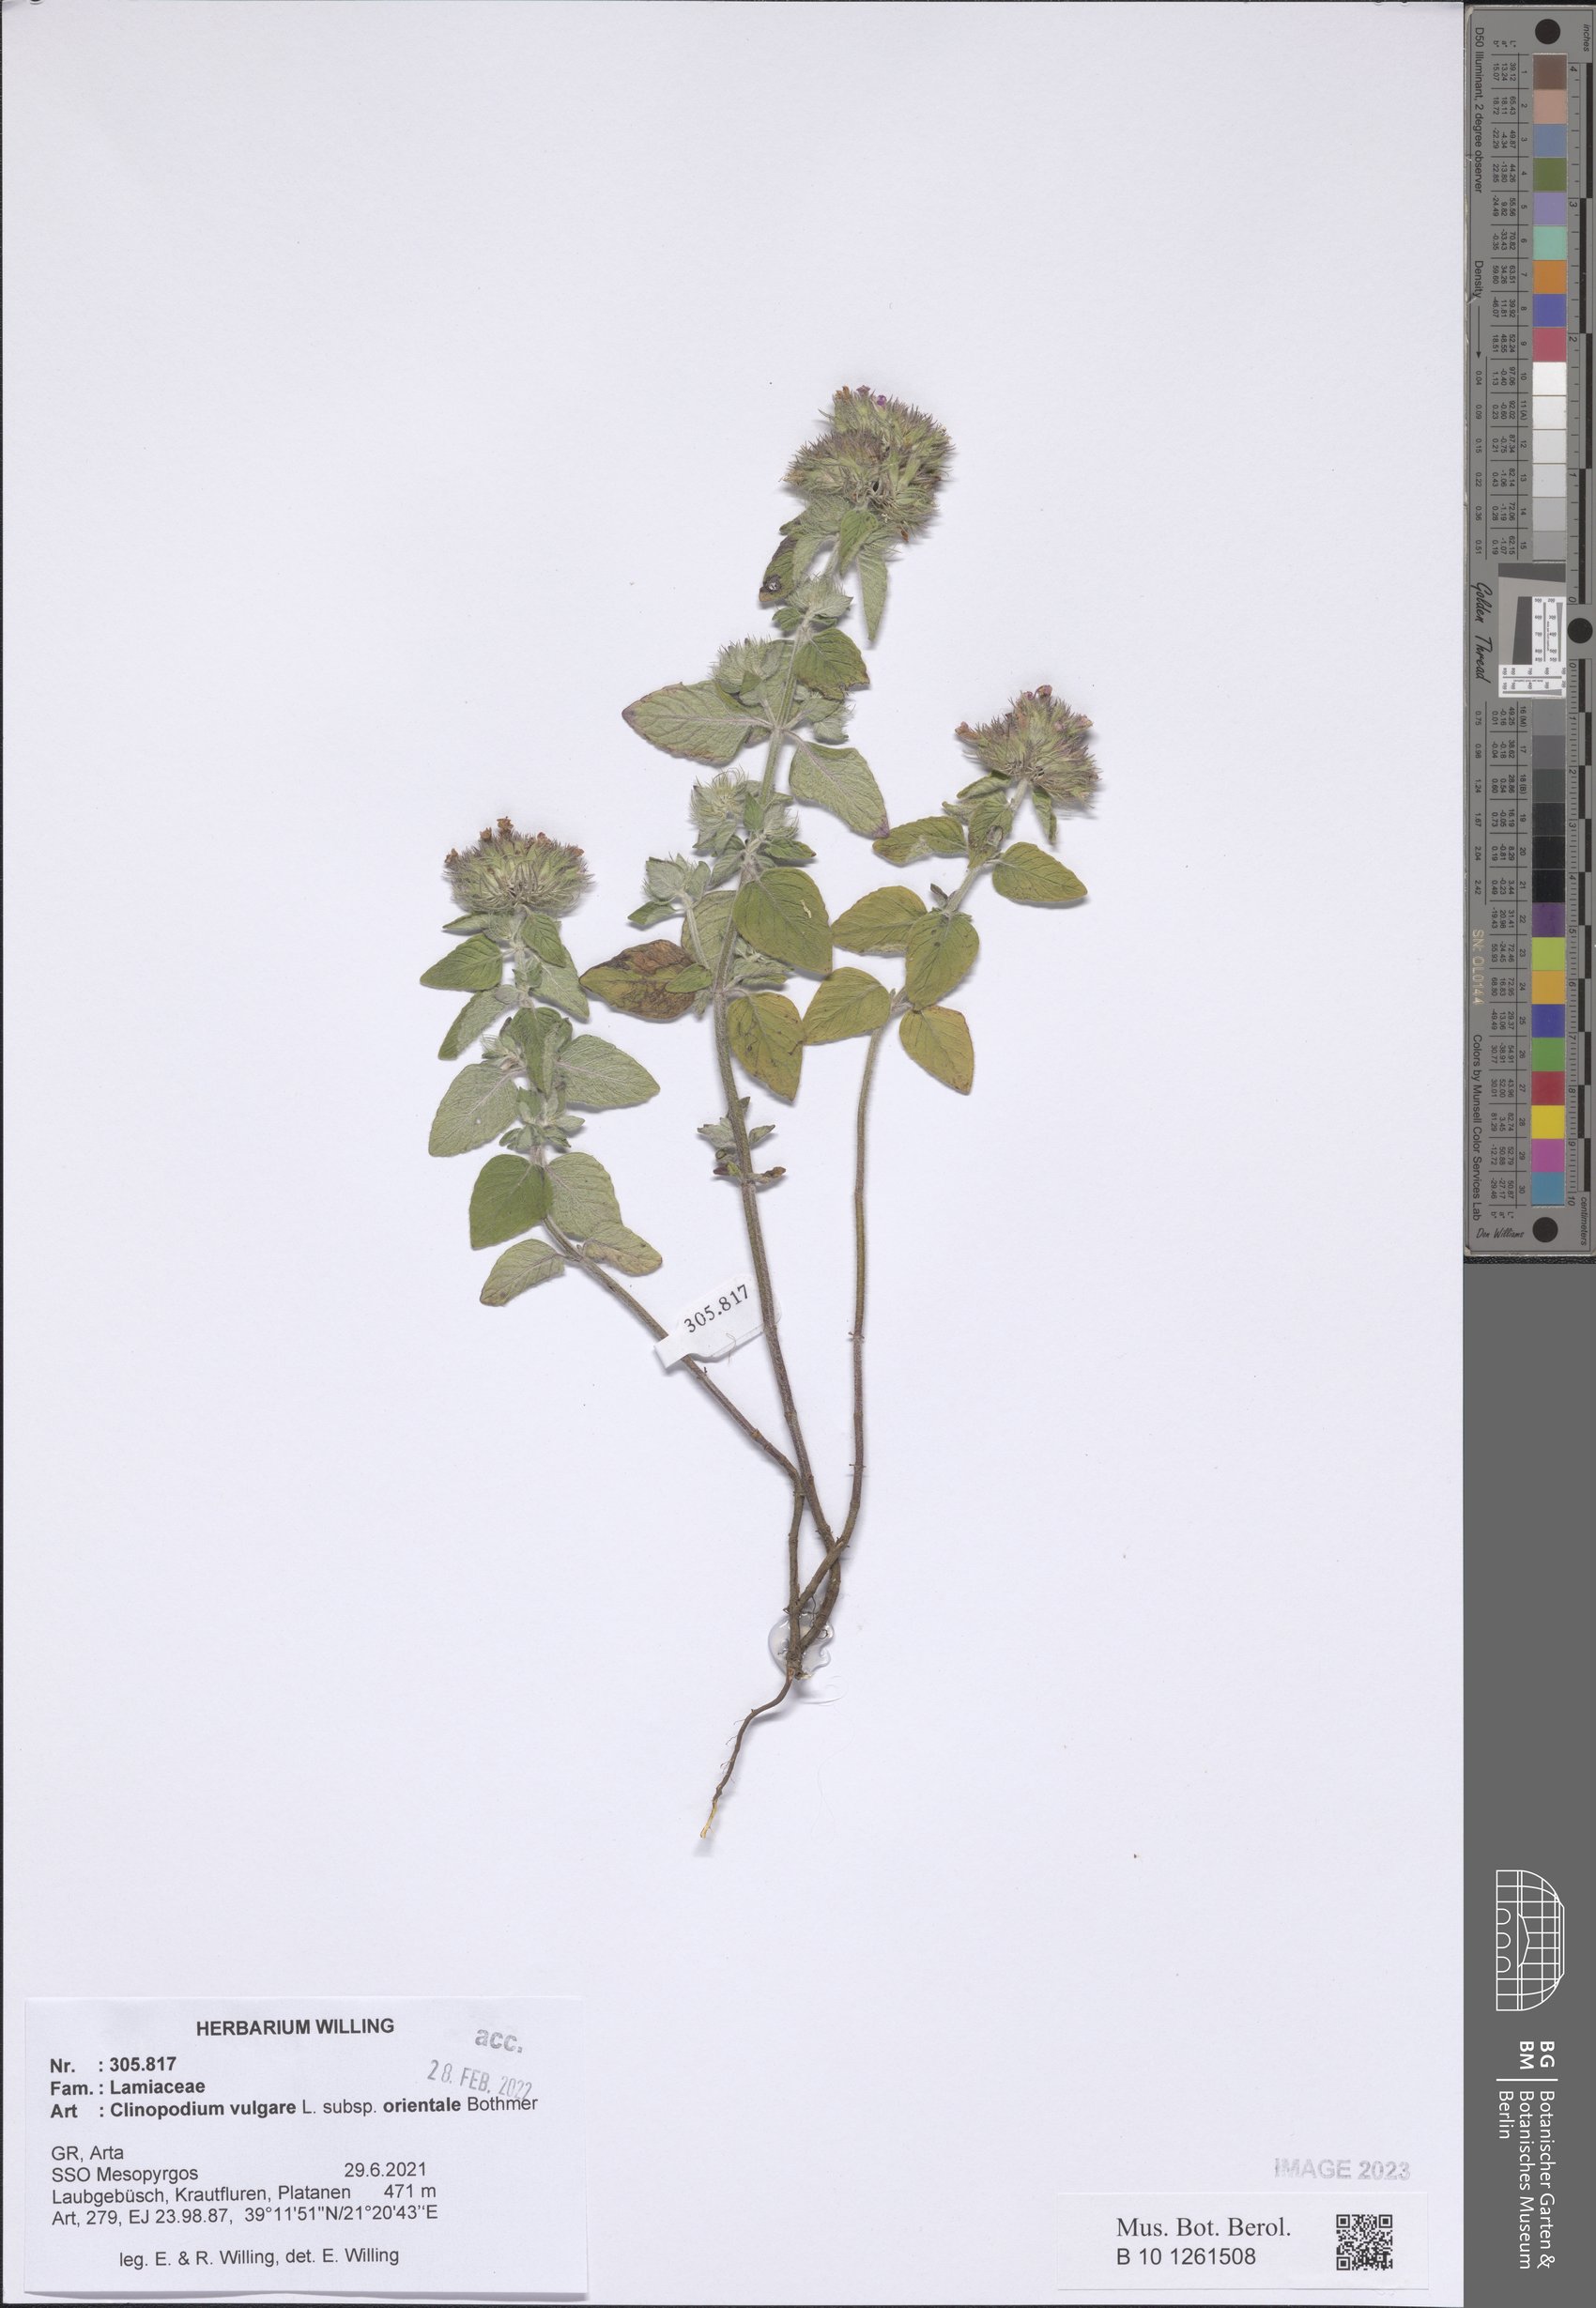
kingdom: Plantae
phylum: Tracheophyta
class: Magnoliopsida
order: Lamiales
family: Lamiaceae
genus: Clinopodium
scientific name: Clinopodium vulgare
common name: Wild basil
